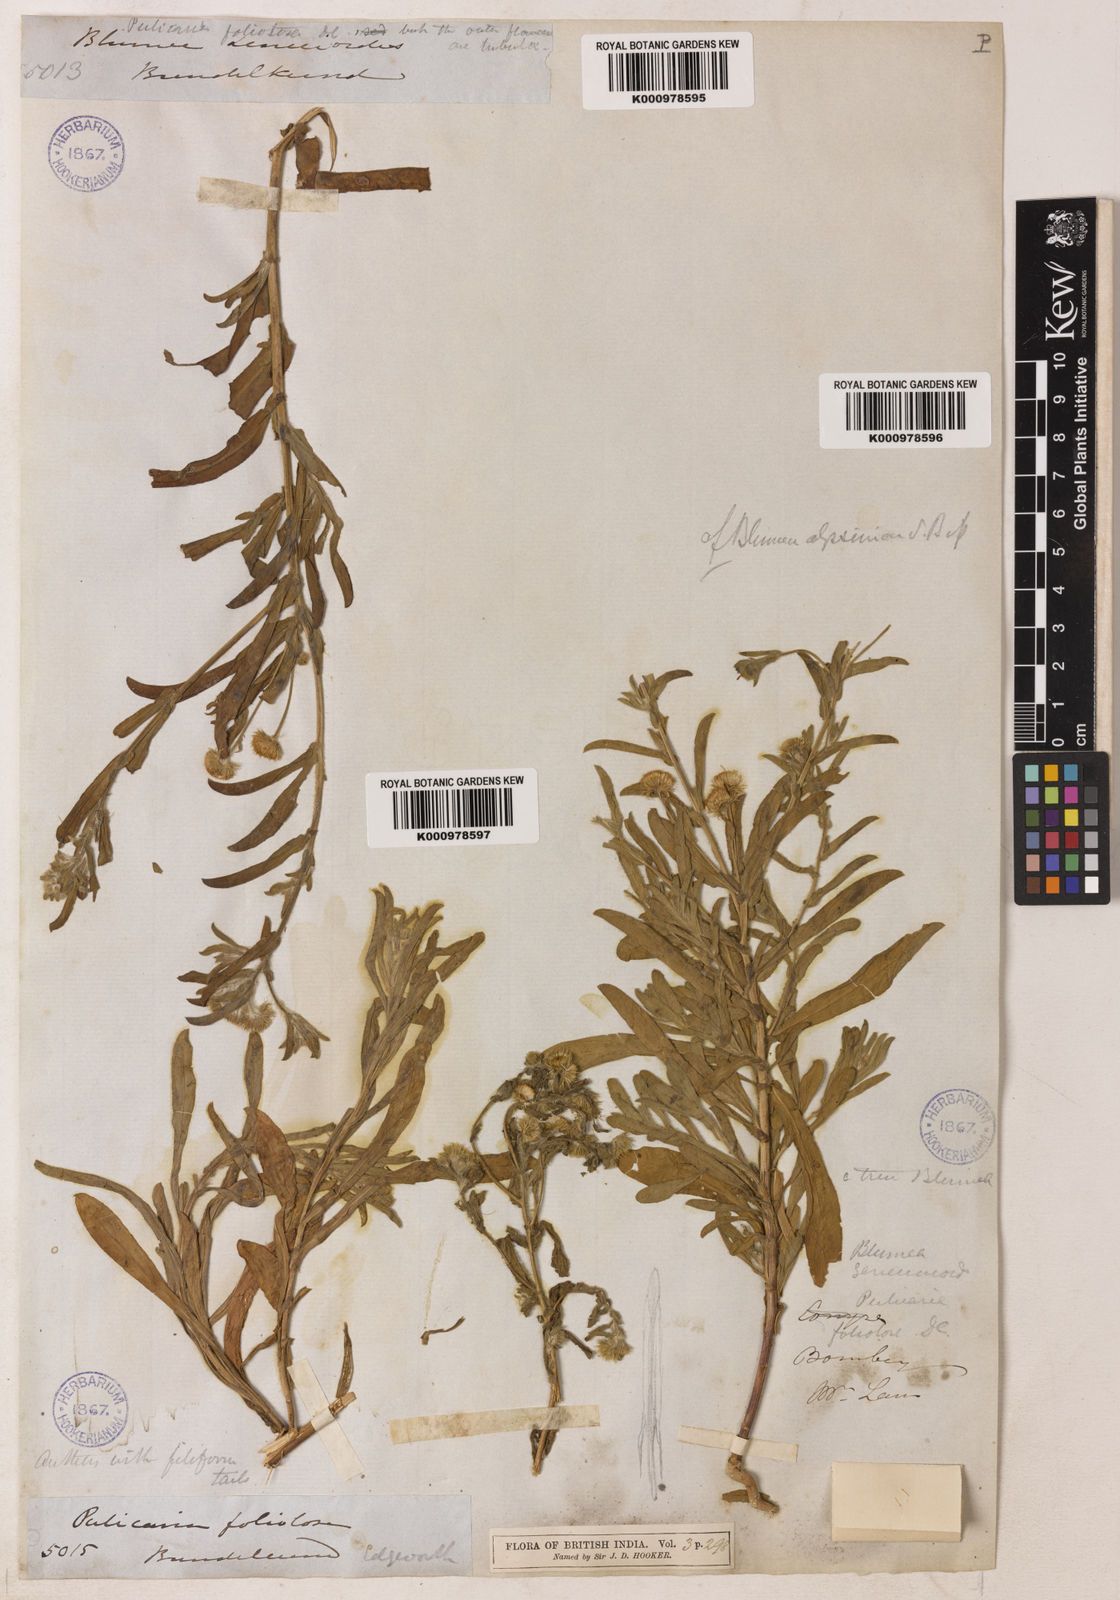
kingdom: Plantae
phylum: Tracheophyta
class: Magnoliopsida
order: Asterales
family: Asteraceae
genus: Pulicaria
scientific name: Pulicaria foliolosa
